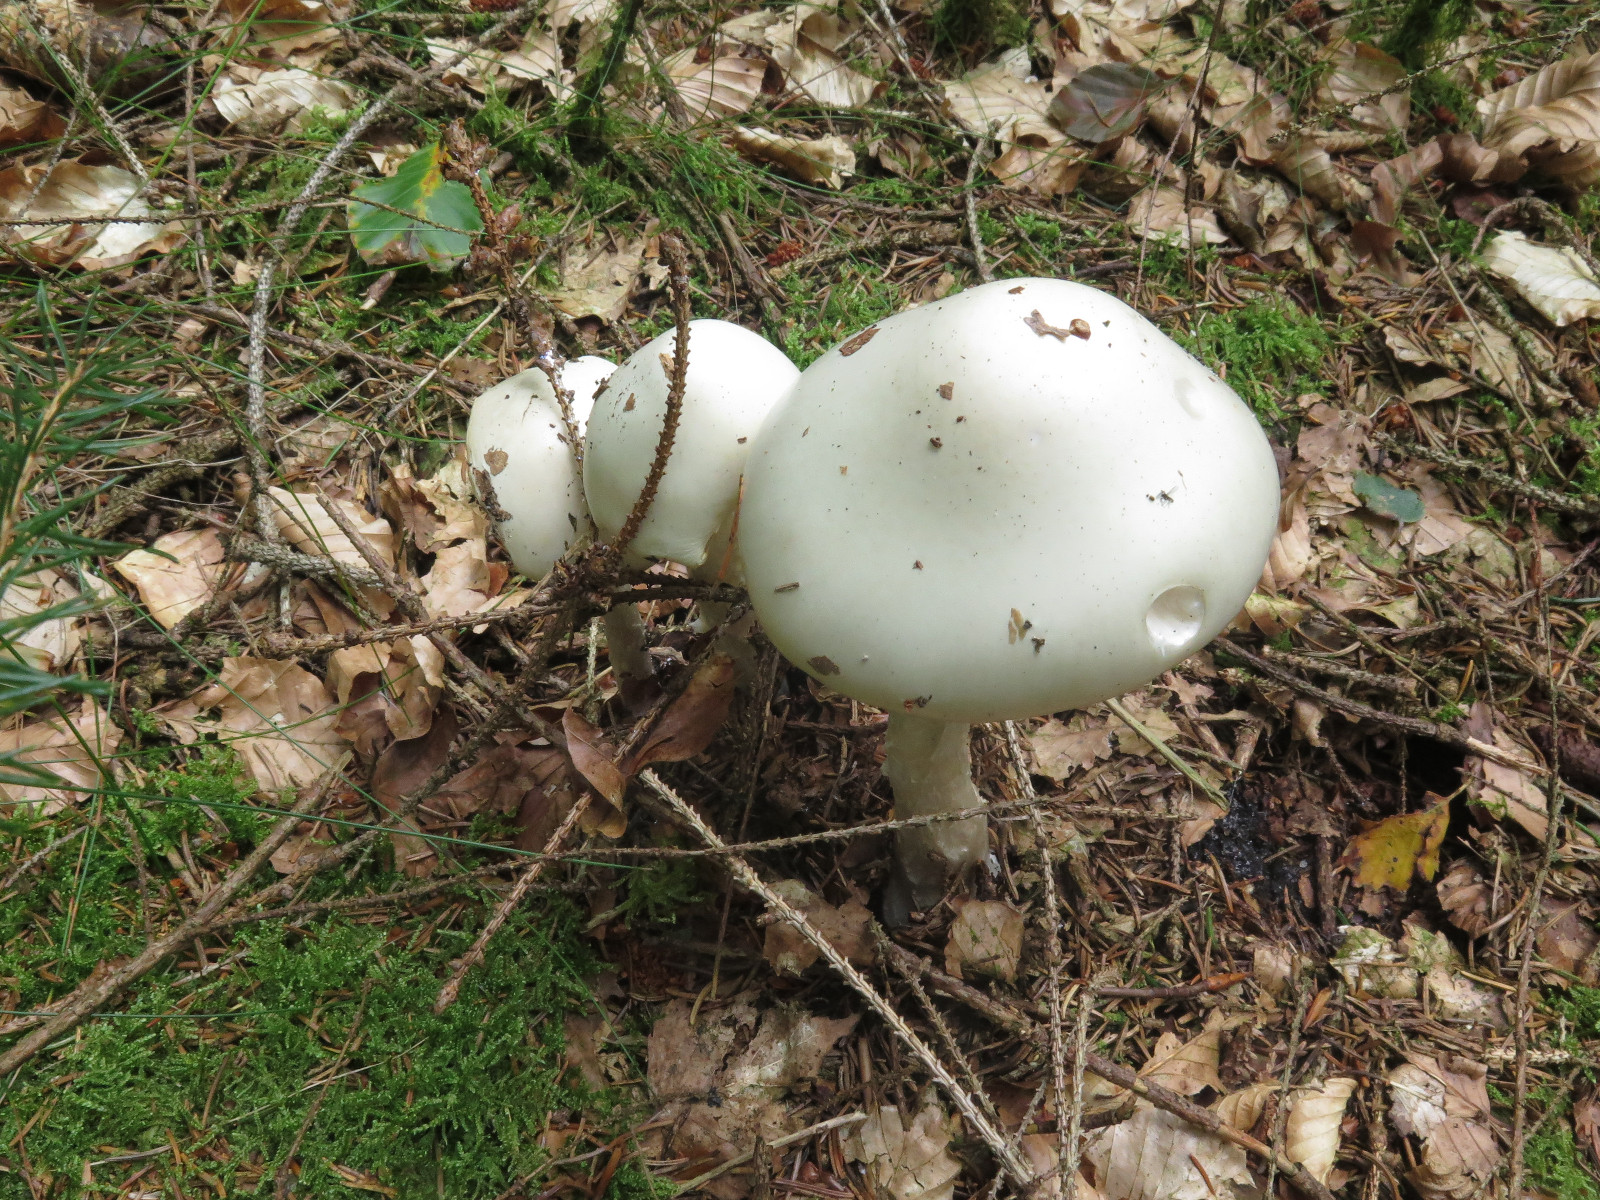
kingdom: Fungi
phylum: Basidiomycota
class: Agaricomycetes
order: Agaricales
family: Amanitaceae
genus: Amanita
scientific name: Amanita virosa
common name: snehvid fluesvamp
